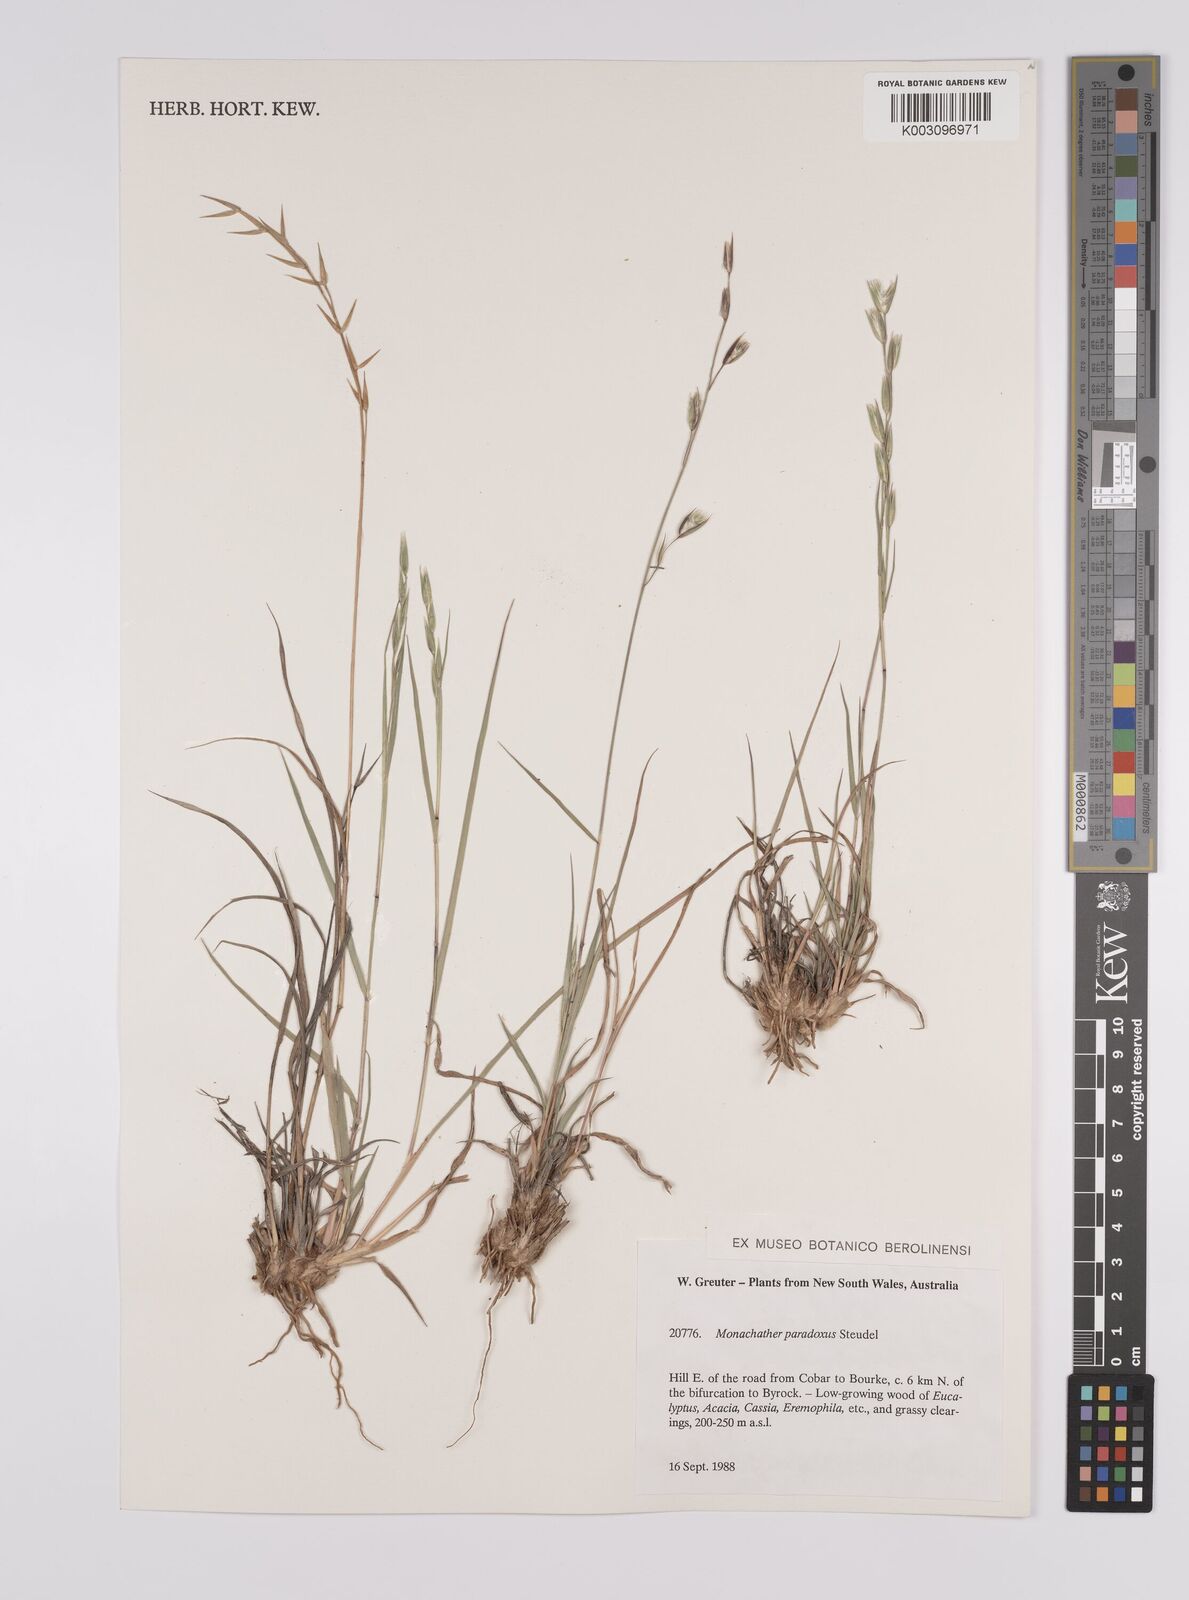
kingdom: Plantae
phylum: Tracheophyta
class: Liliopsida
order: Poales
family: Poaceae
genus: Monachather
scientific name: Monachather paradoxus
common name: Bandicoot grass
